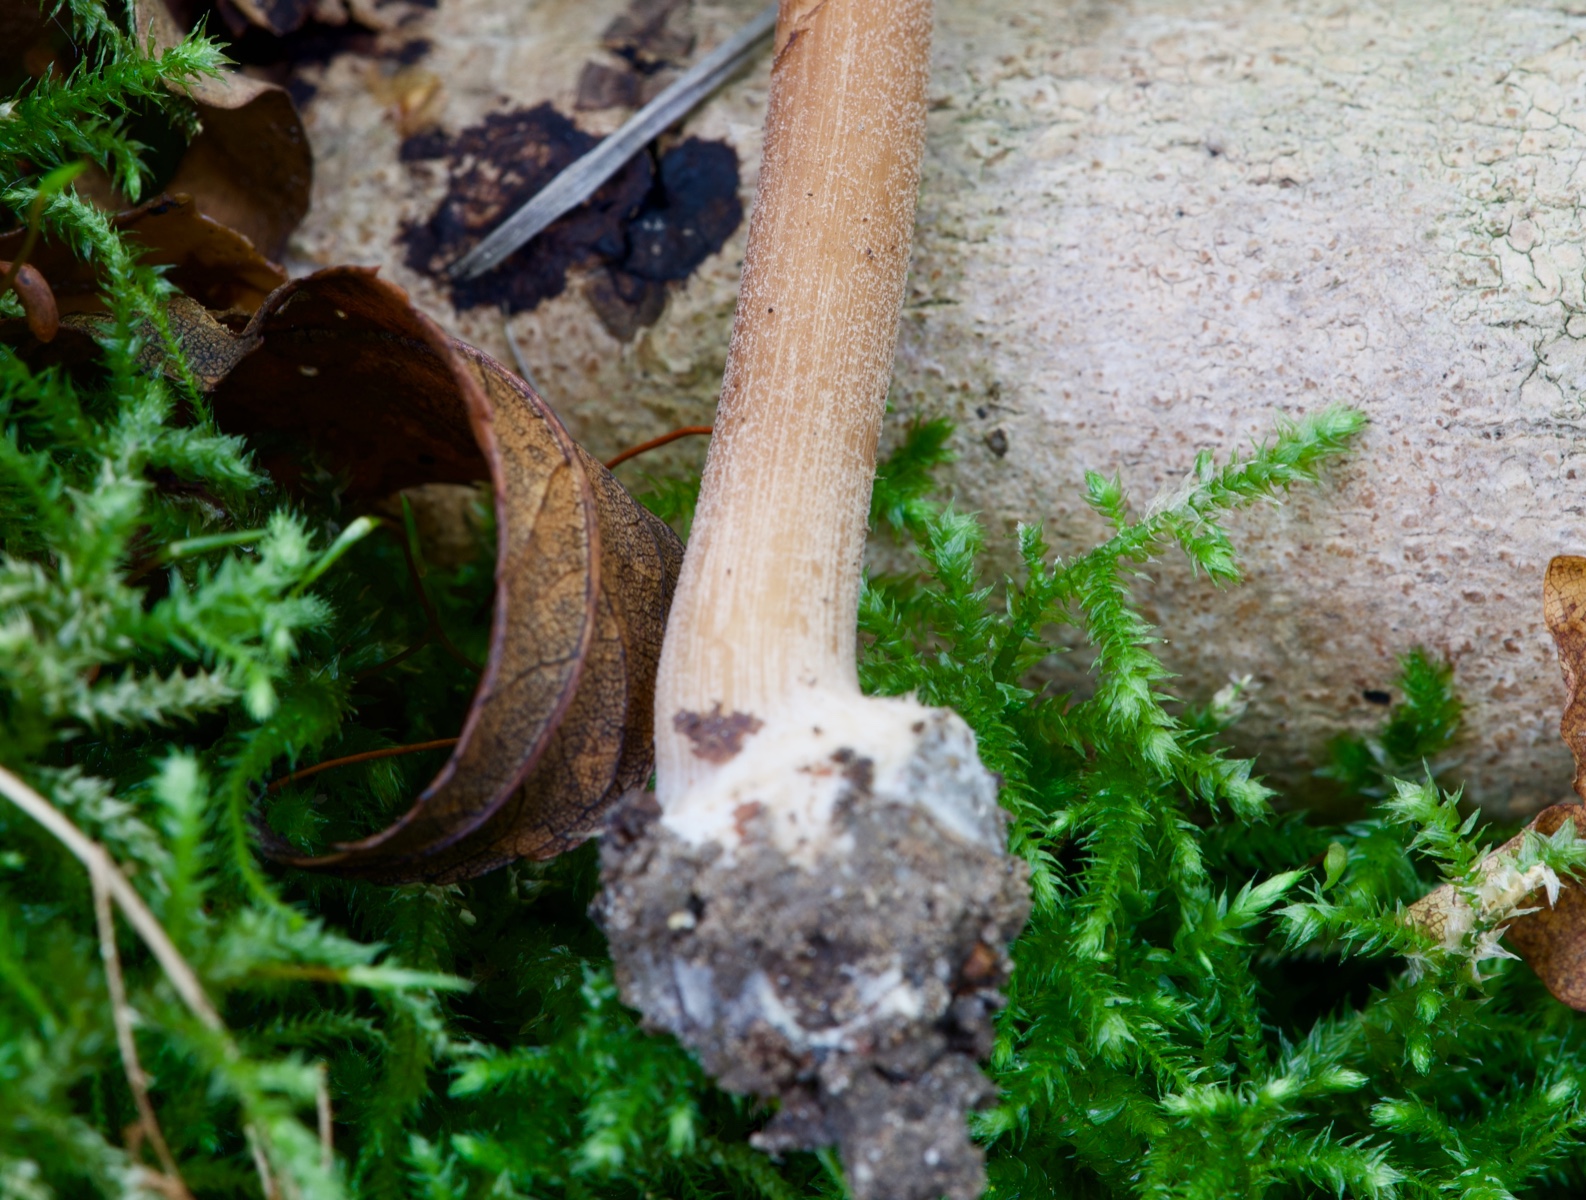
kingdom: Fungi
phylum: Basidiomycota
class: Agaricomycetes
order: Agaricales
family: Inocybaceae
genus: Inocybe
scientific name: Inocybe asterospora
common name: stjernesporet trævlhat
